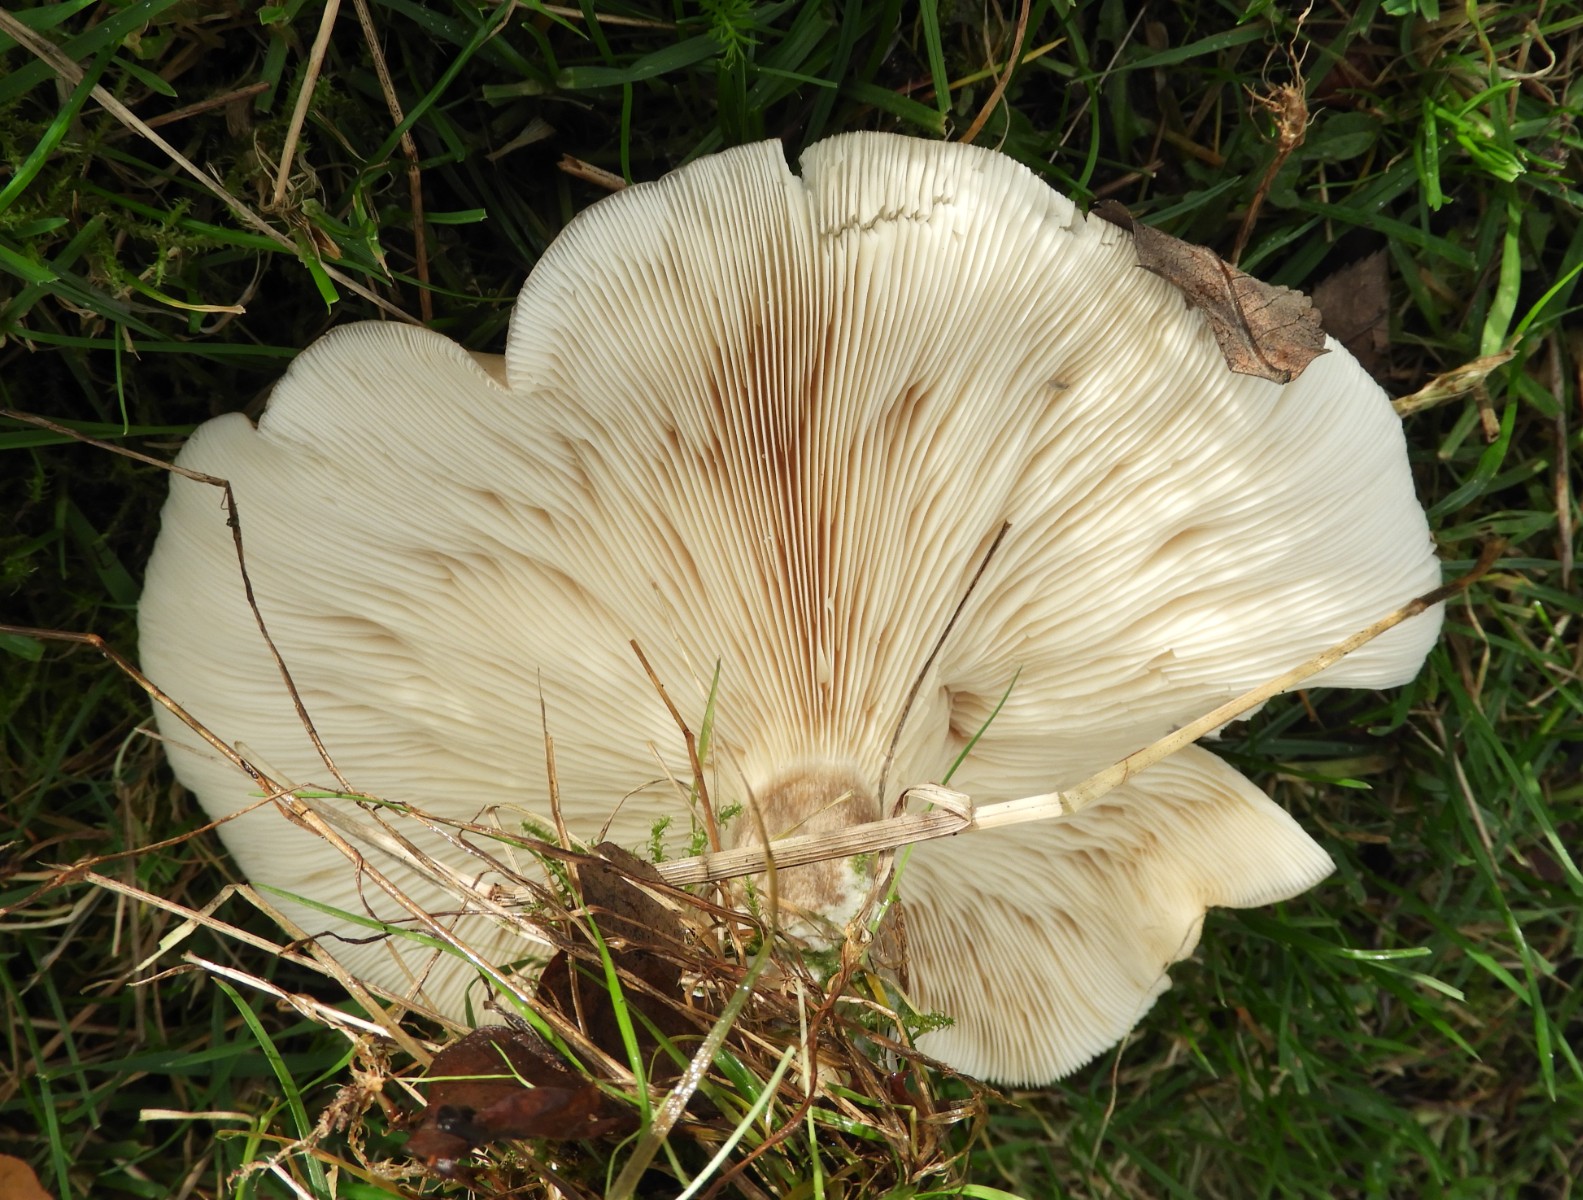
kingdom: Fungi
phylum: Basidiomycota
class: Agaricomycetes
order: Agaricales
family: Tricholomataceae
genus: Lepista
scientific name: Lepista panaeolus
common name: marmoreret hekseringshat
